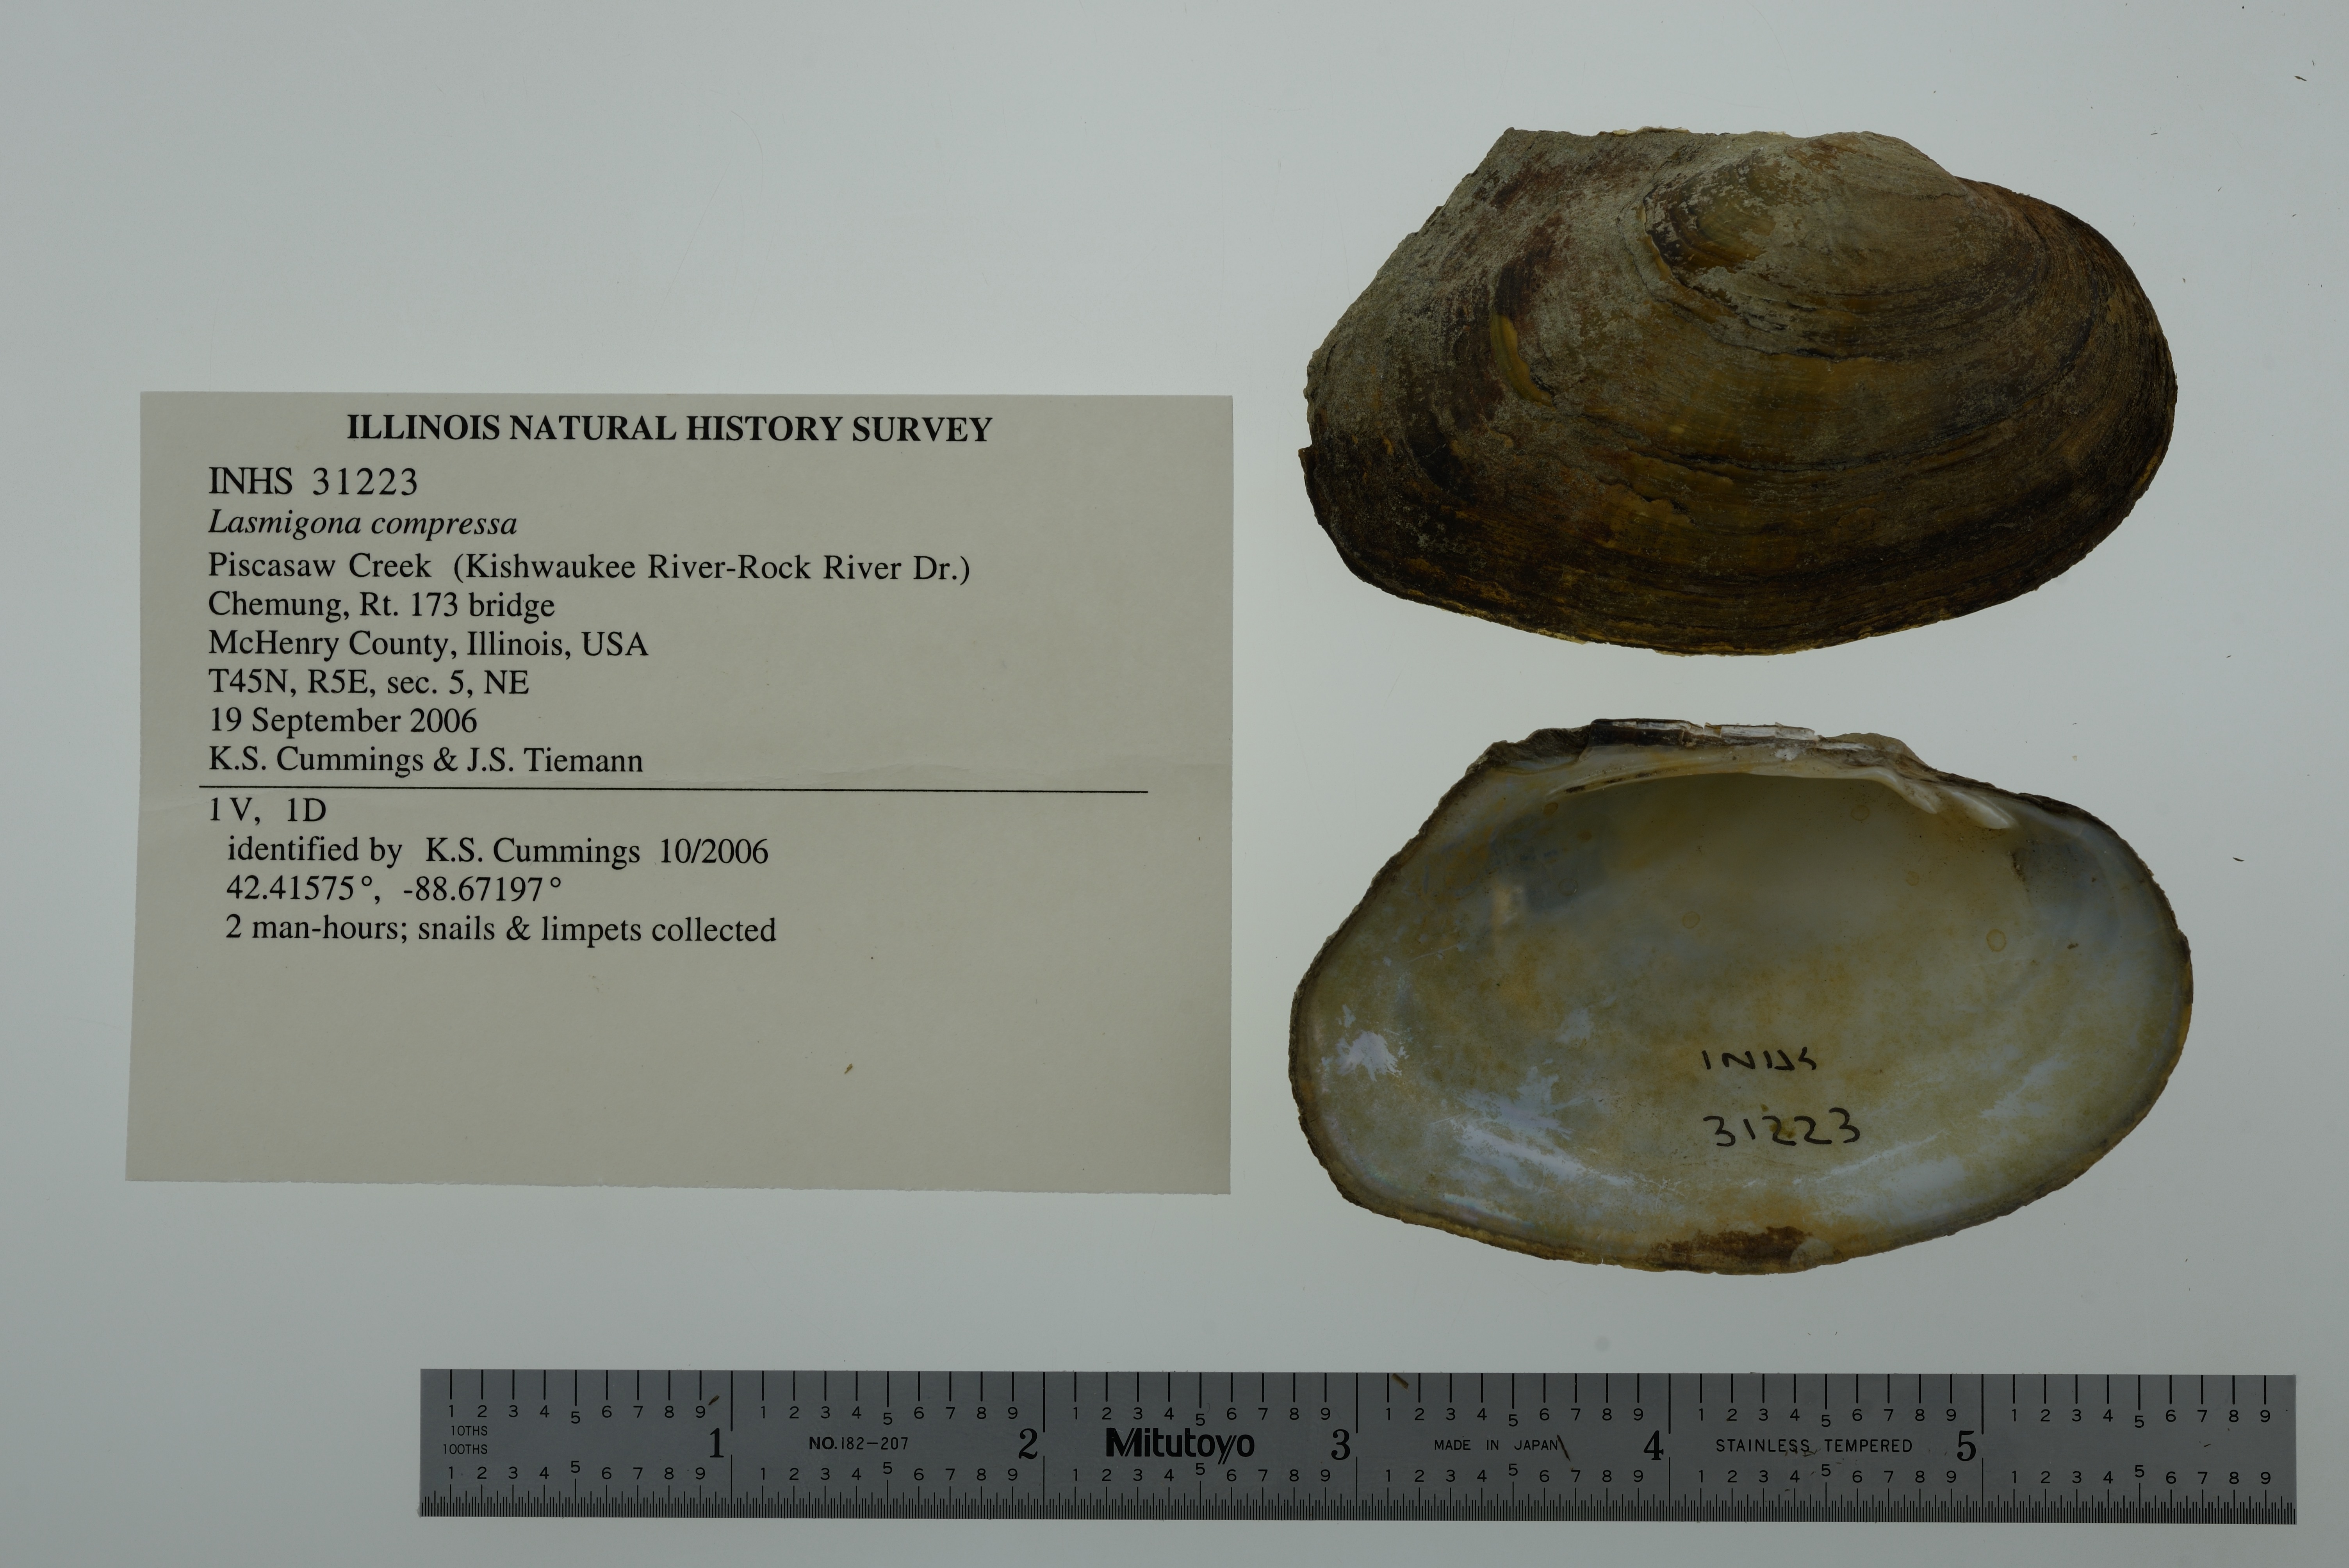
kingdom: Animalia
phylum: Mollusca
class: Bivalvia
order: Unionida
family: Unionidae
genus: Lasmigona
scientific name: Lasmigona compressa
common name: Creek heelsplitter
